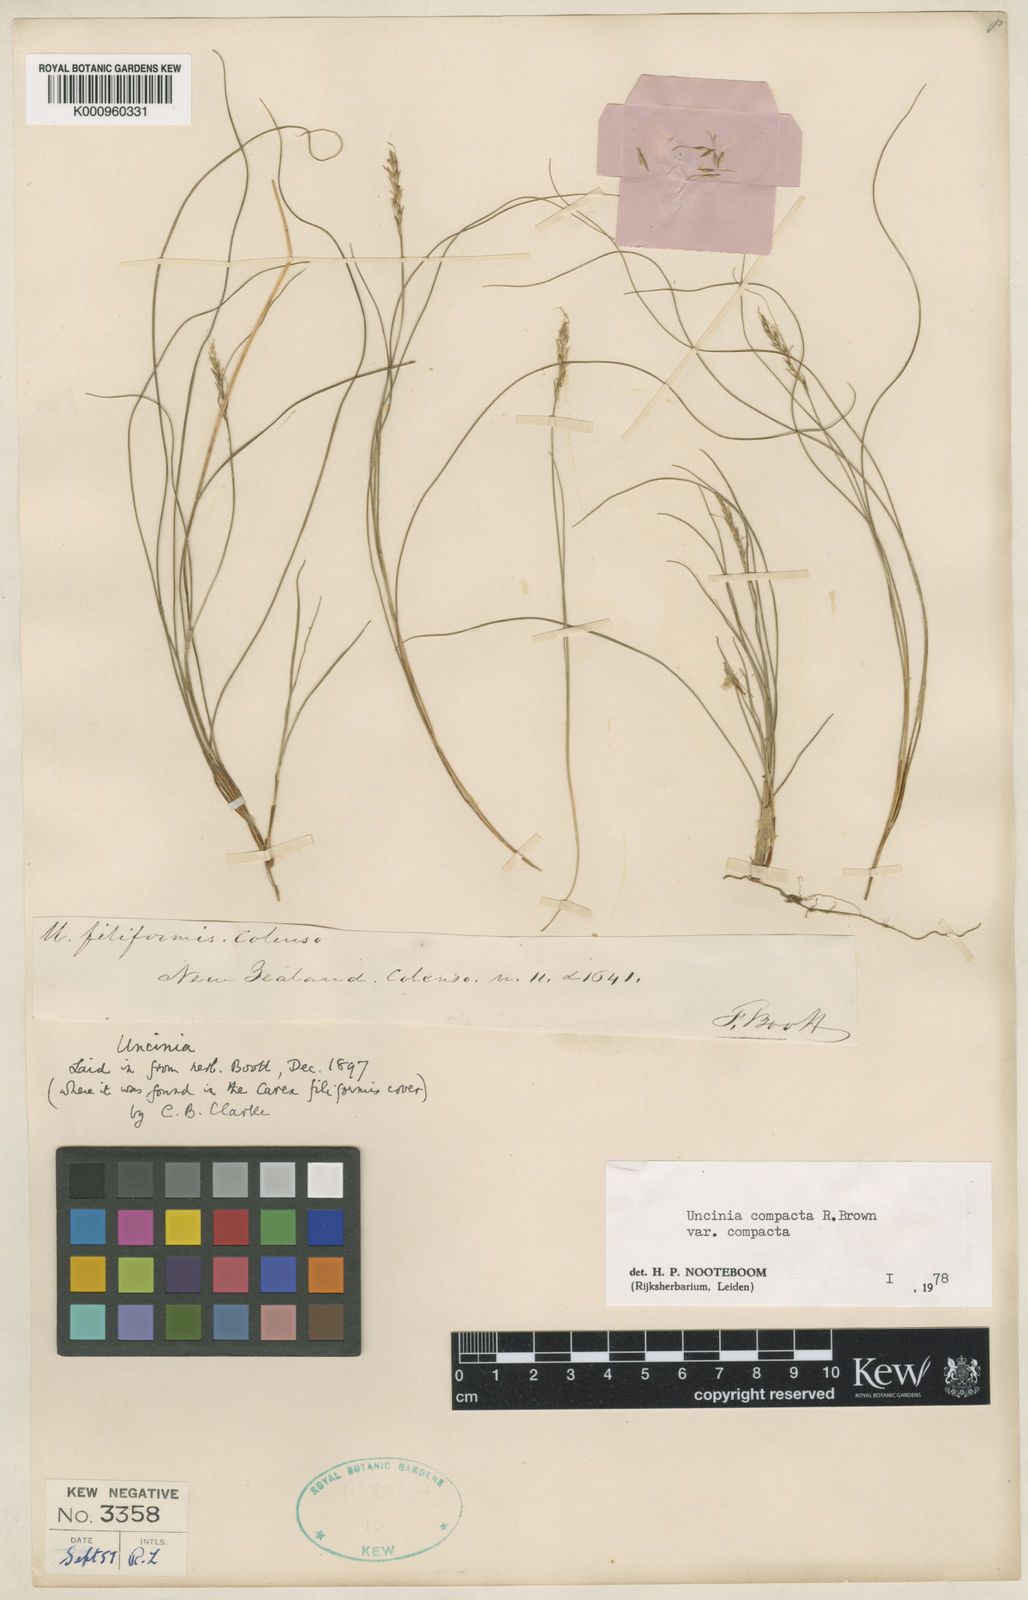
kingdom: Plantae
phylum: Tracheophyta
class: Liliopsida
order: Poales
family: Cyperaceae
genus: Carex
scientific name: Carex lectissima
